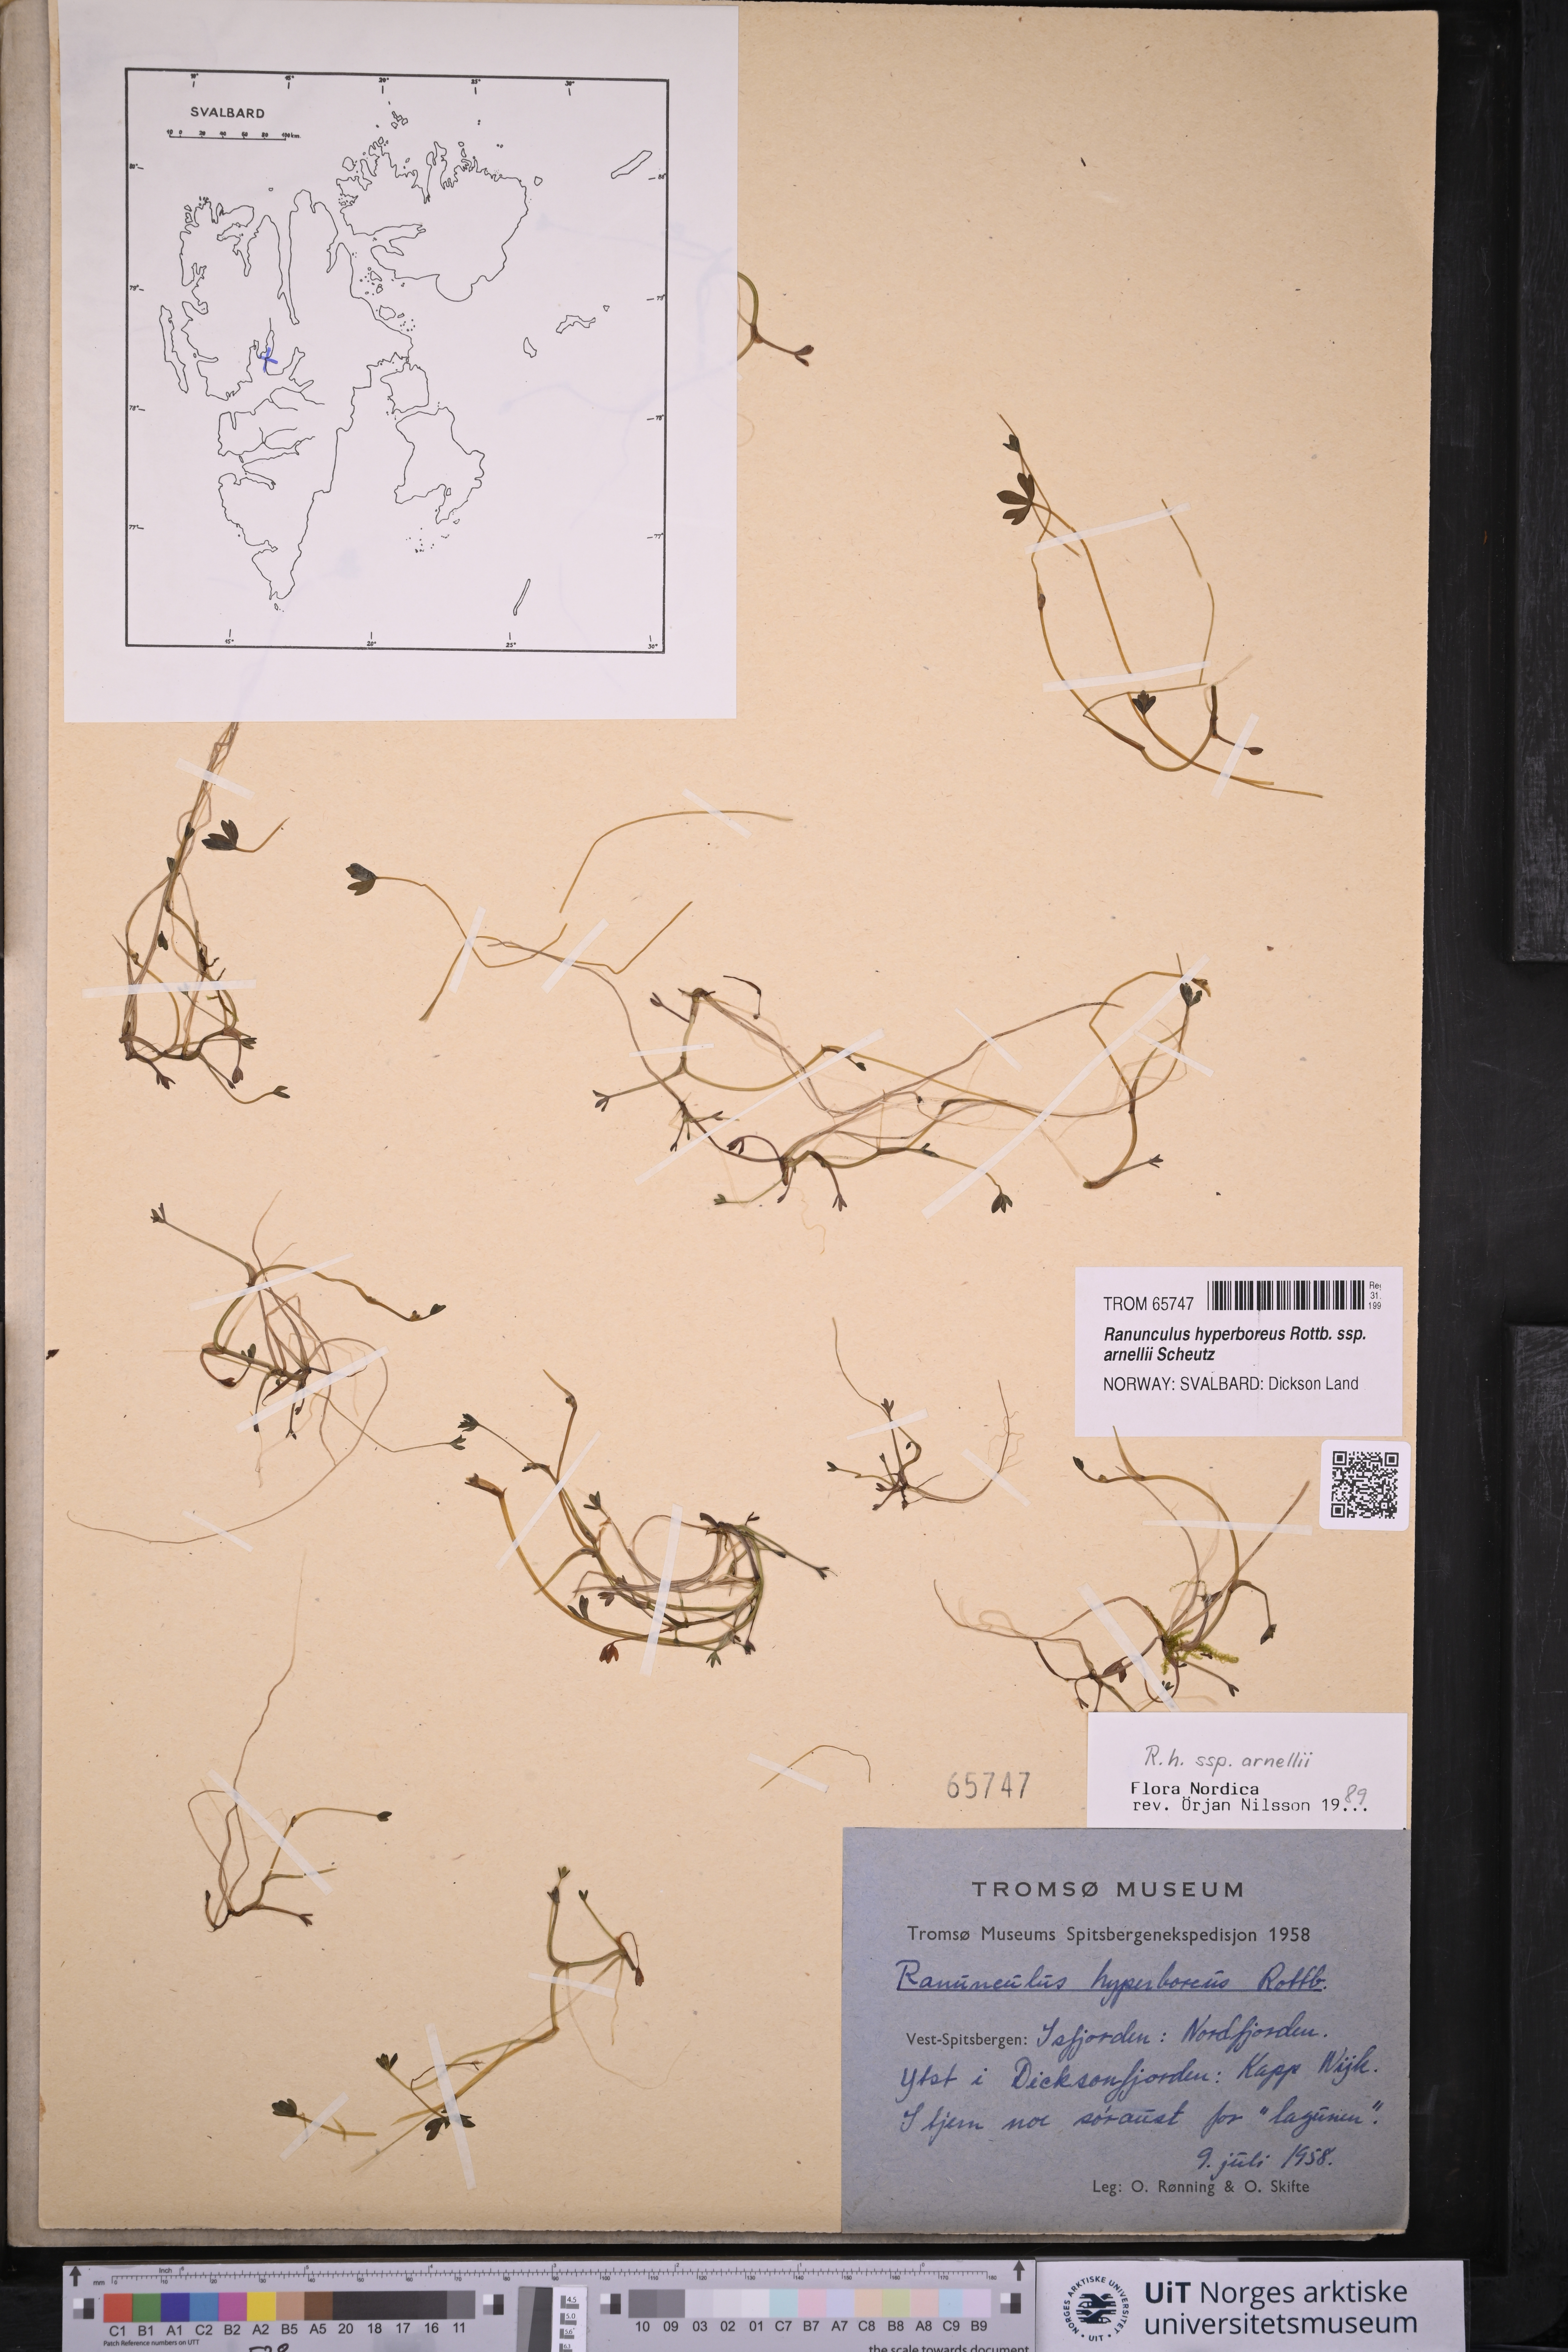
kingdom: Plantae
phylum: Tracheophyta
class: Magnoliopsida
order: Ranunculales
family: Ranunculaceae
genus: Ranunculus
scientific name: Ranunculus hyperboreus
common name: Arctic buttercup
